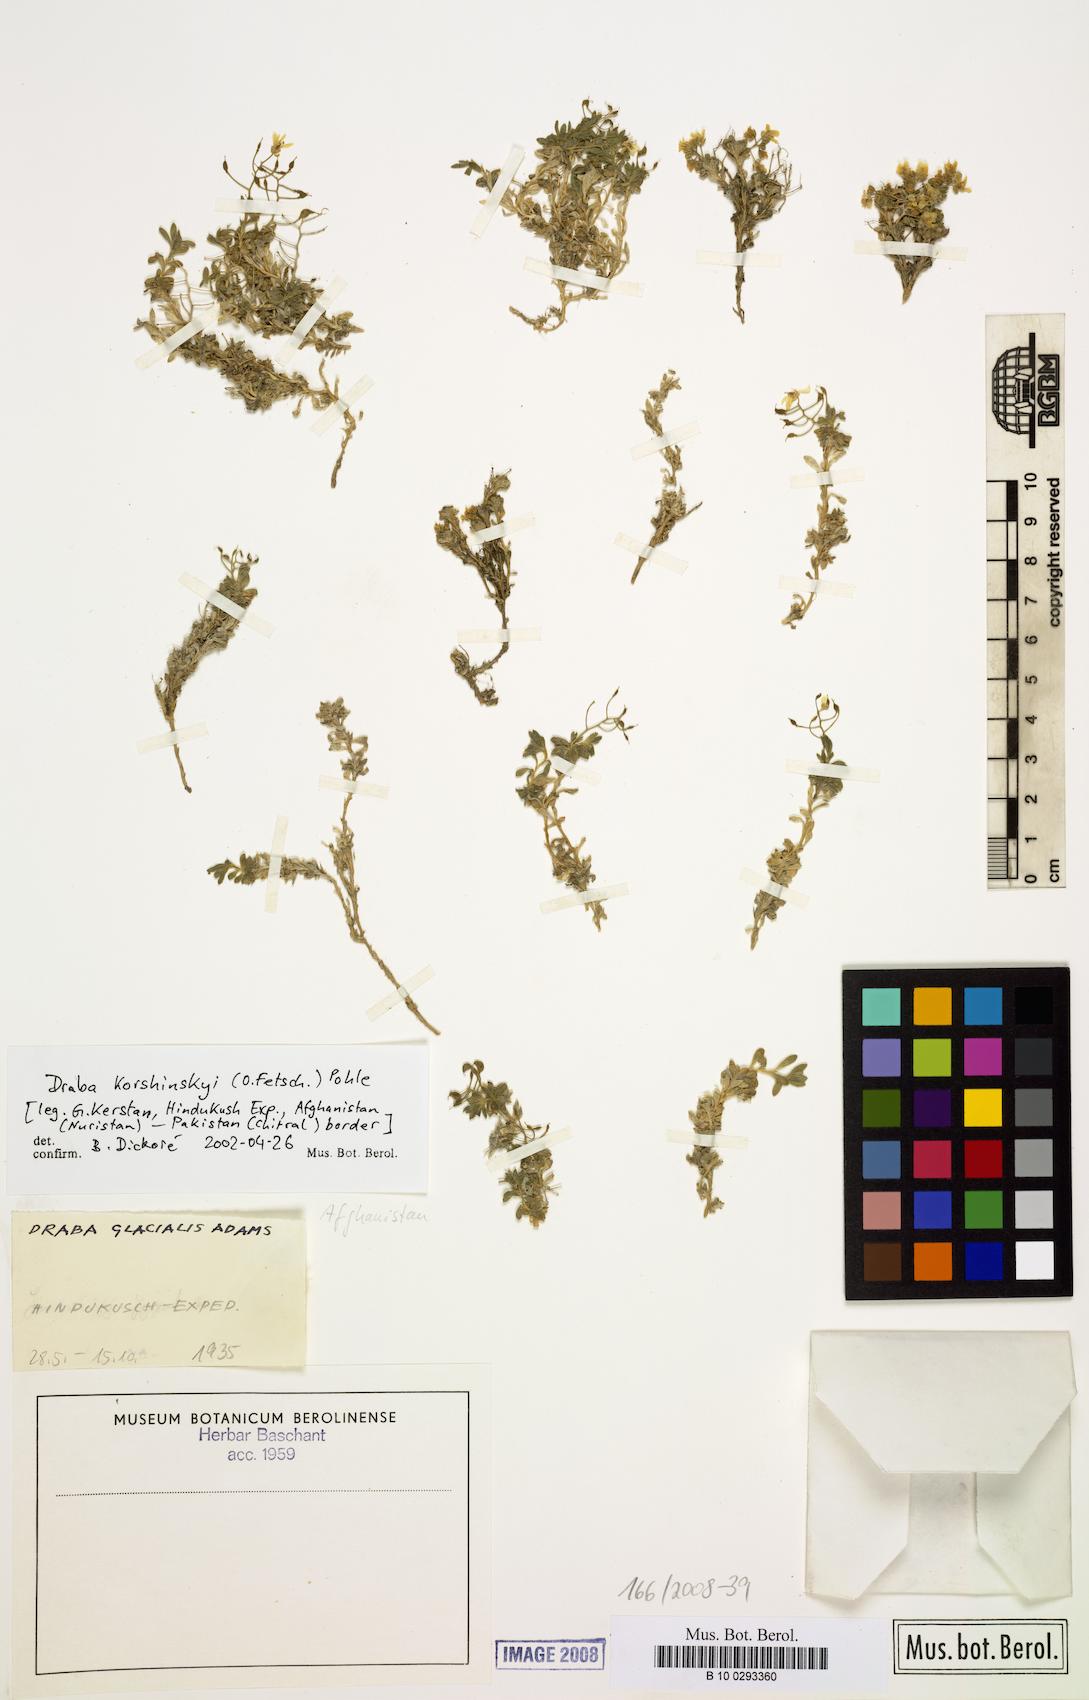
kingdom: Plantae
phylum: Tracheophyta
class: Magnoliopsida
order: Brassicales
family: Brassicaceae
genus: Draba
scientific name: Draba korshinskyi
